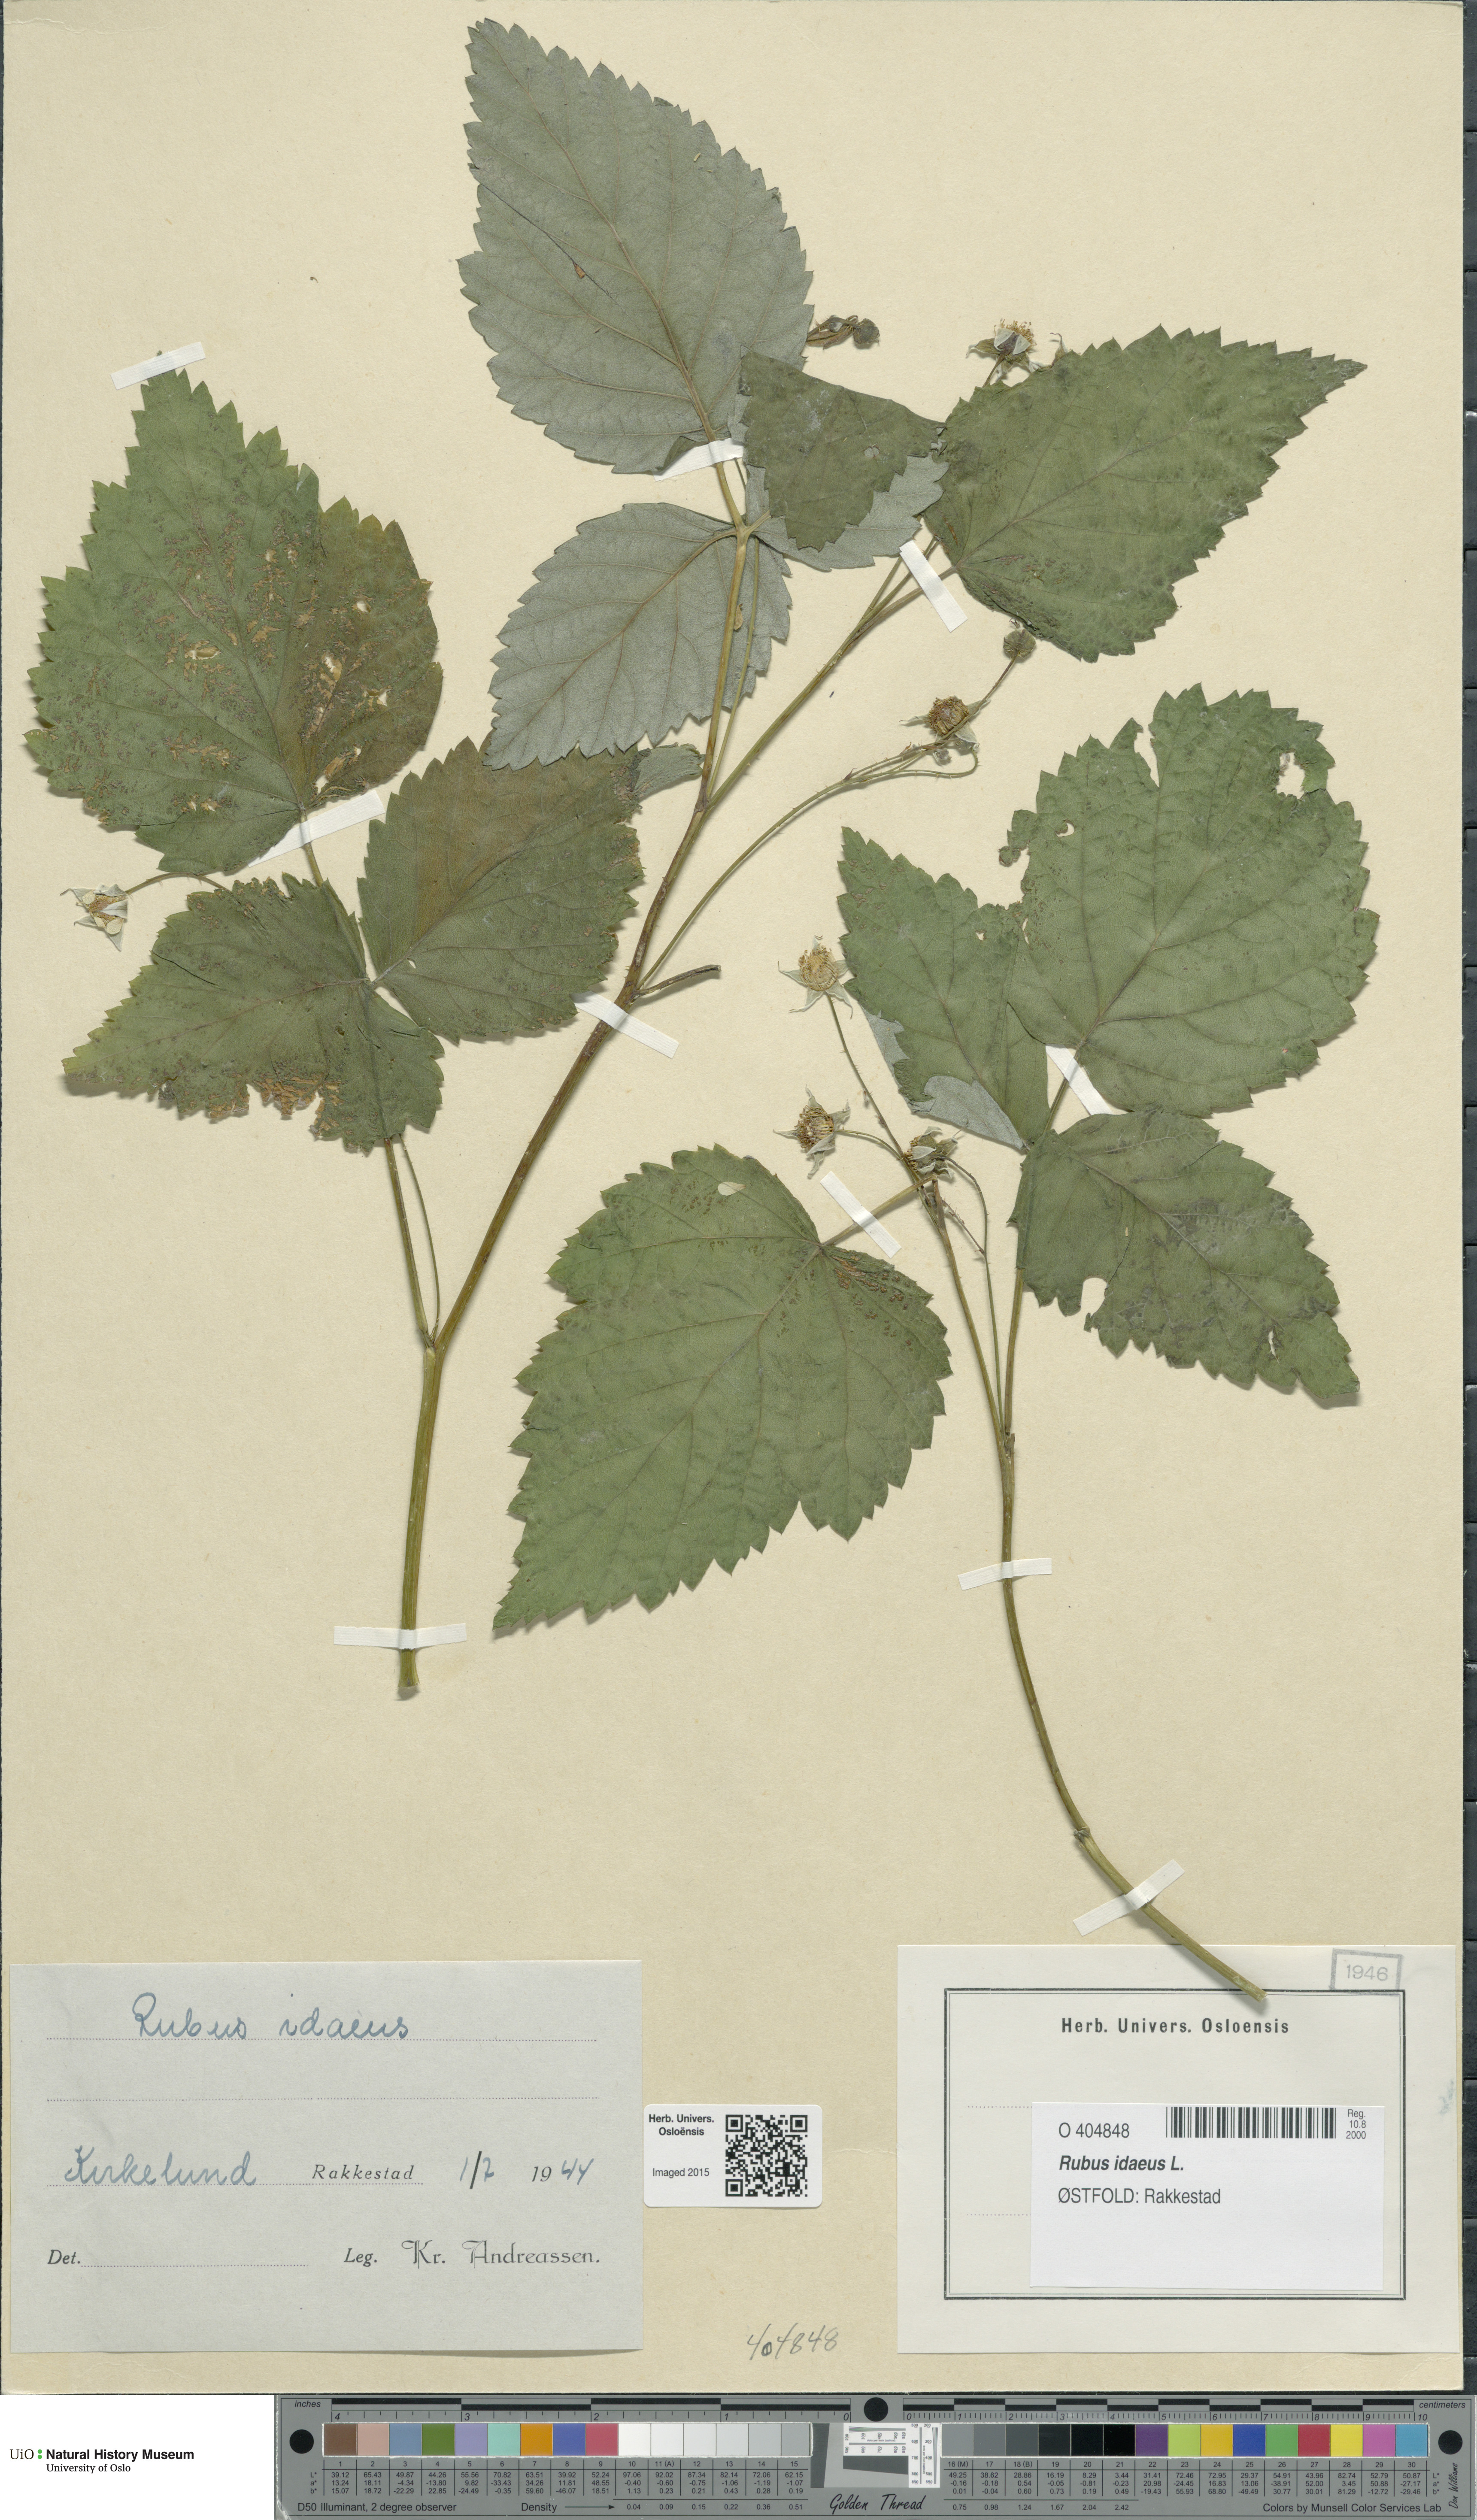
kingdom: Plantae
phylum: Tracheophyta
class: Magnoliopsida
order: Rosales
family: Rosaceae
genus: Rubus
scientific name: Rubus idaeus
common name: Raspberry
